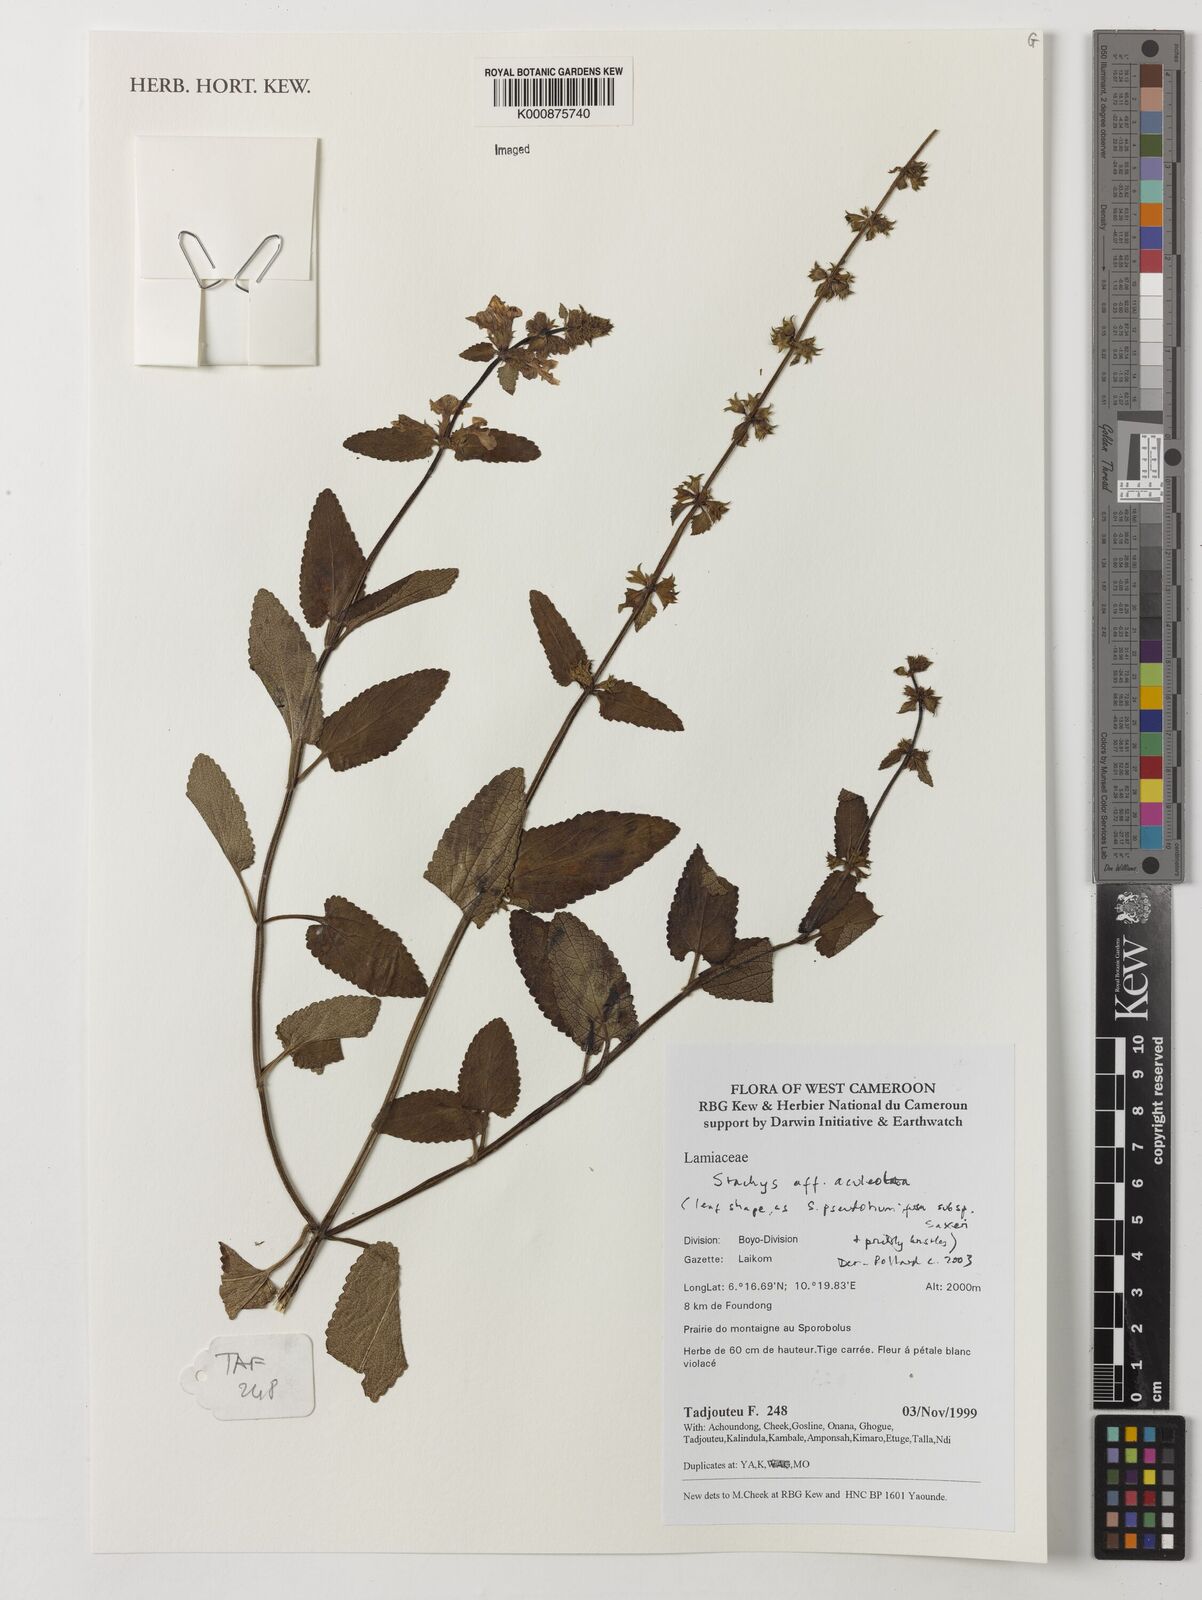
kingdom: Plantae
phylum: Tracheophyta
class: Magnoliopsida
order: Lamiales
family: Lamiaceae
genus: Stachys
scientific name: Stachys aculeolata
